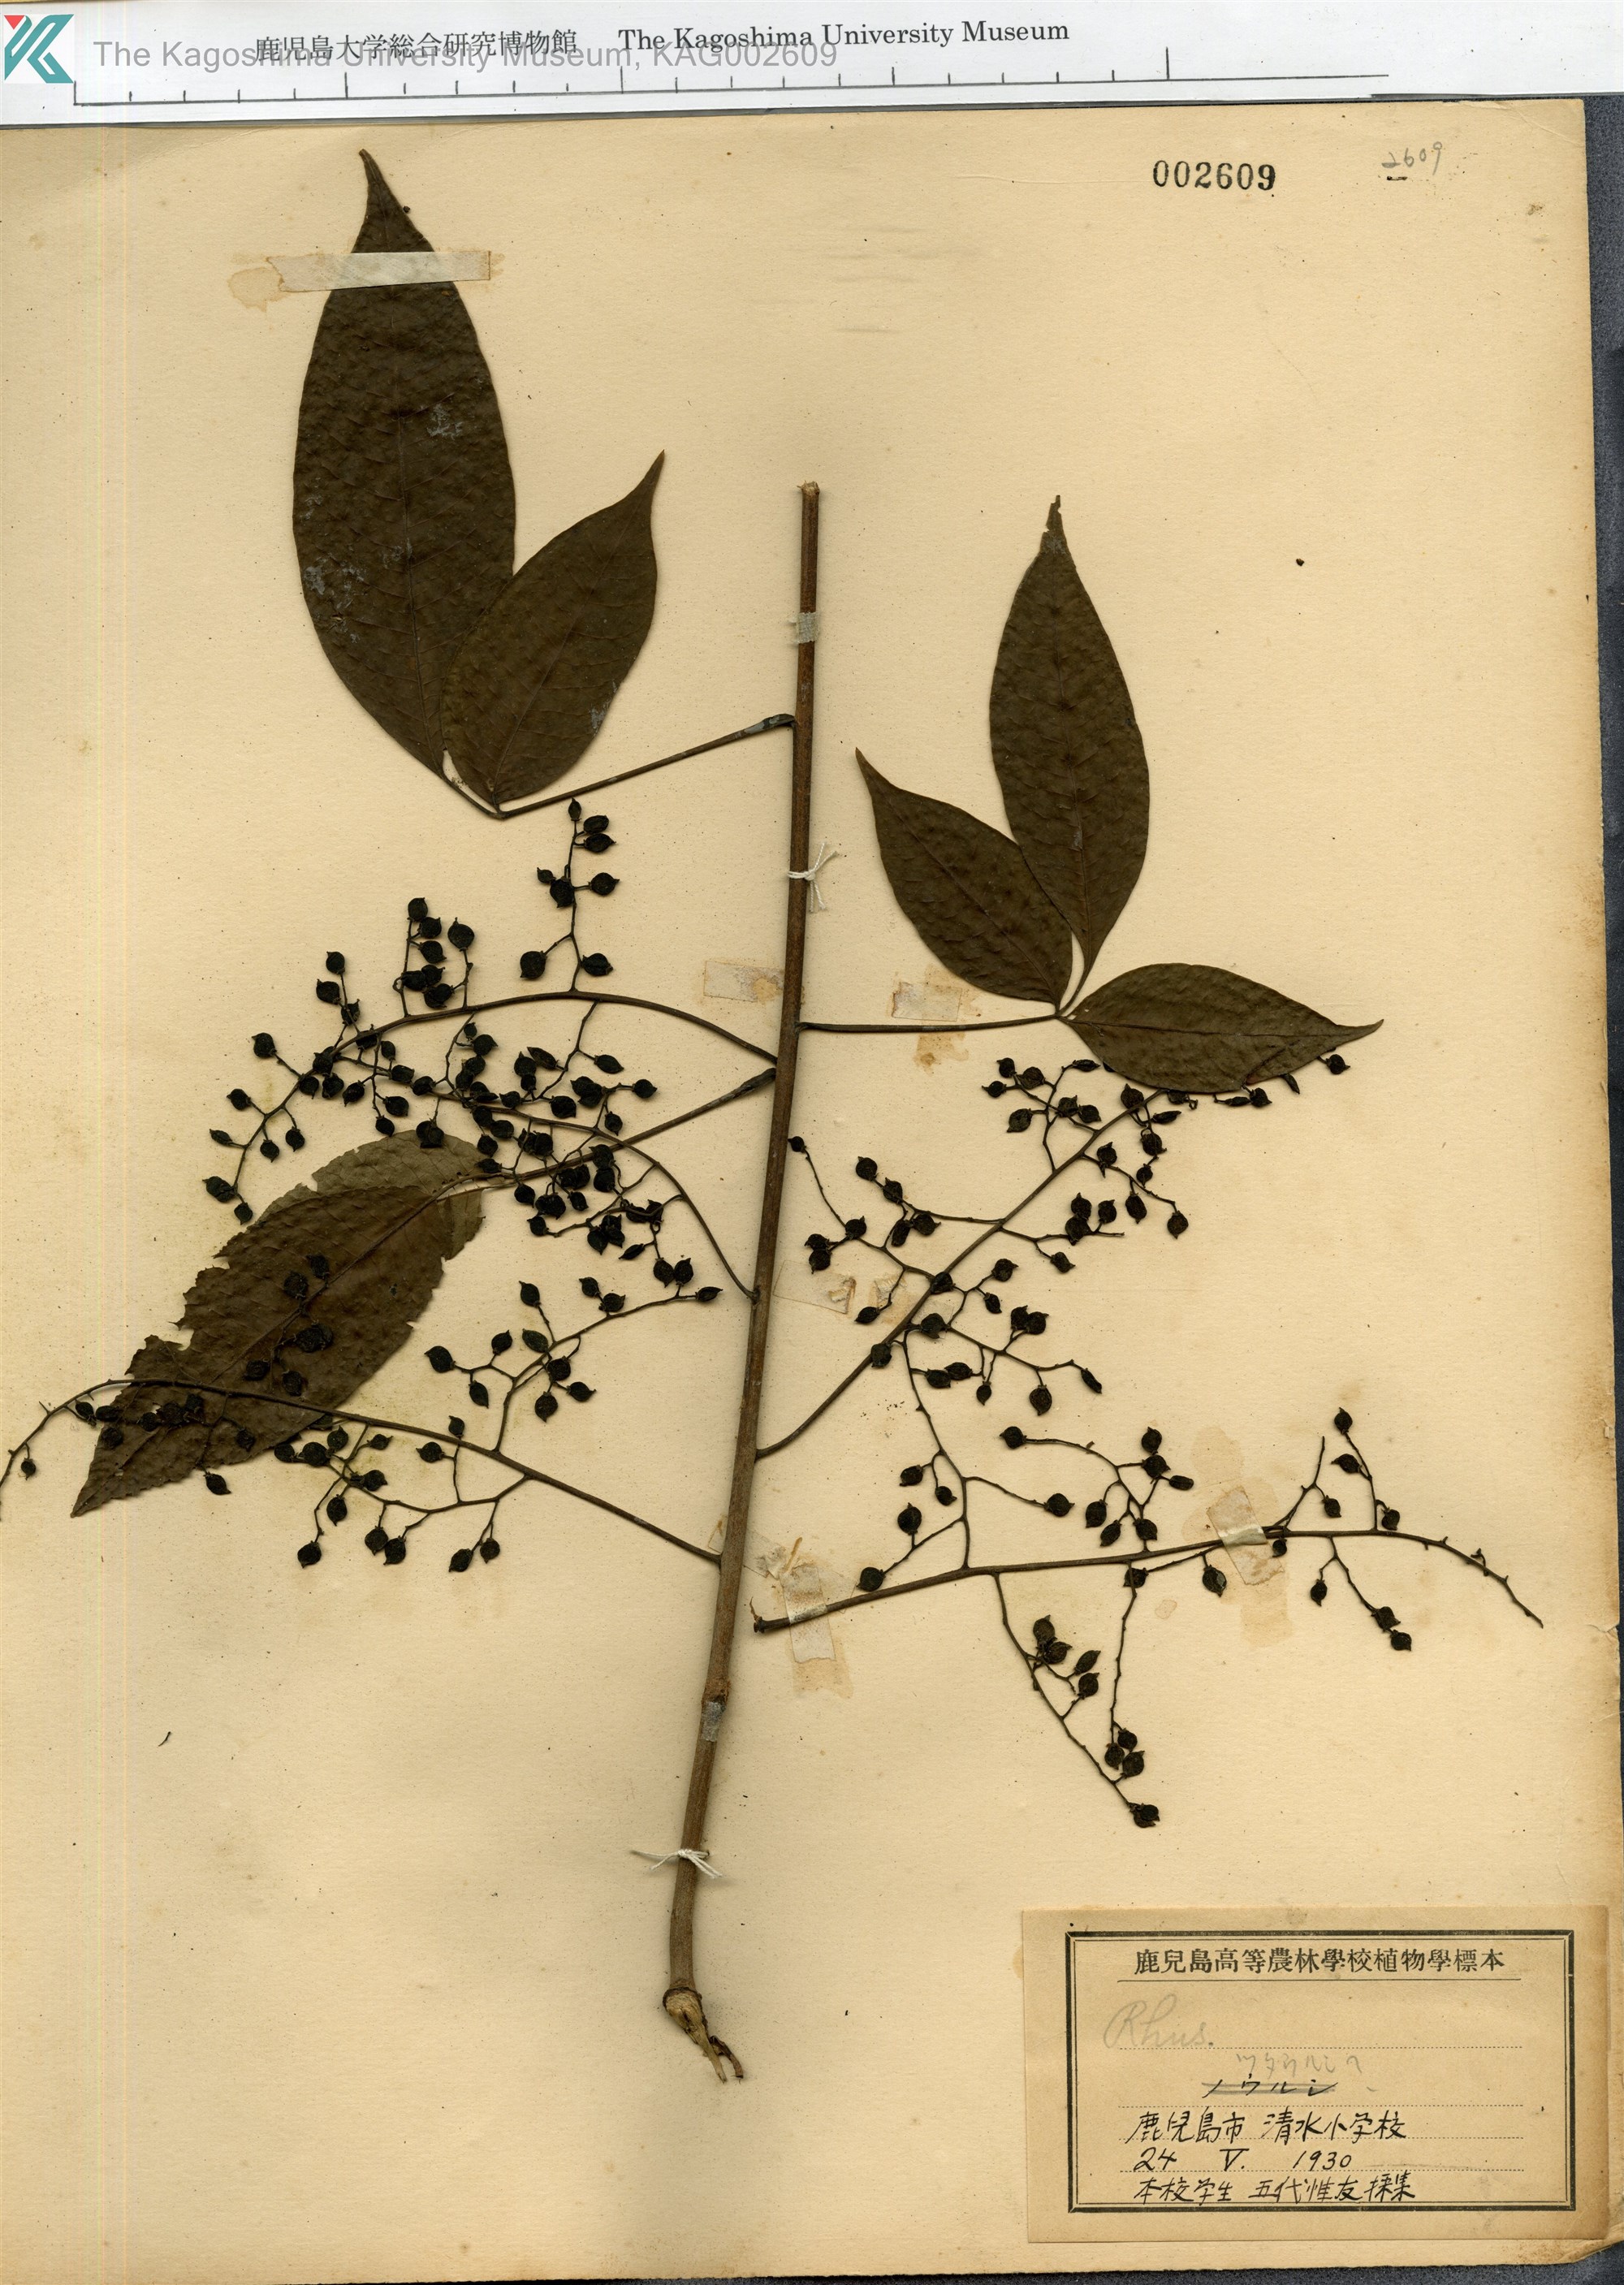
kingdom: Plantae
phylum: Tracheophyta
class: Magnoliopsida
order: Sapindales
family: Anacardiaceae
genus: Toxicodendron
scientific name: Toxicodendron orientale
